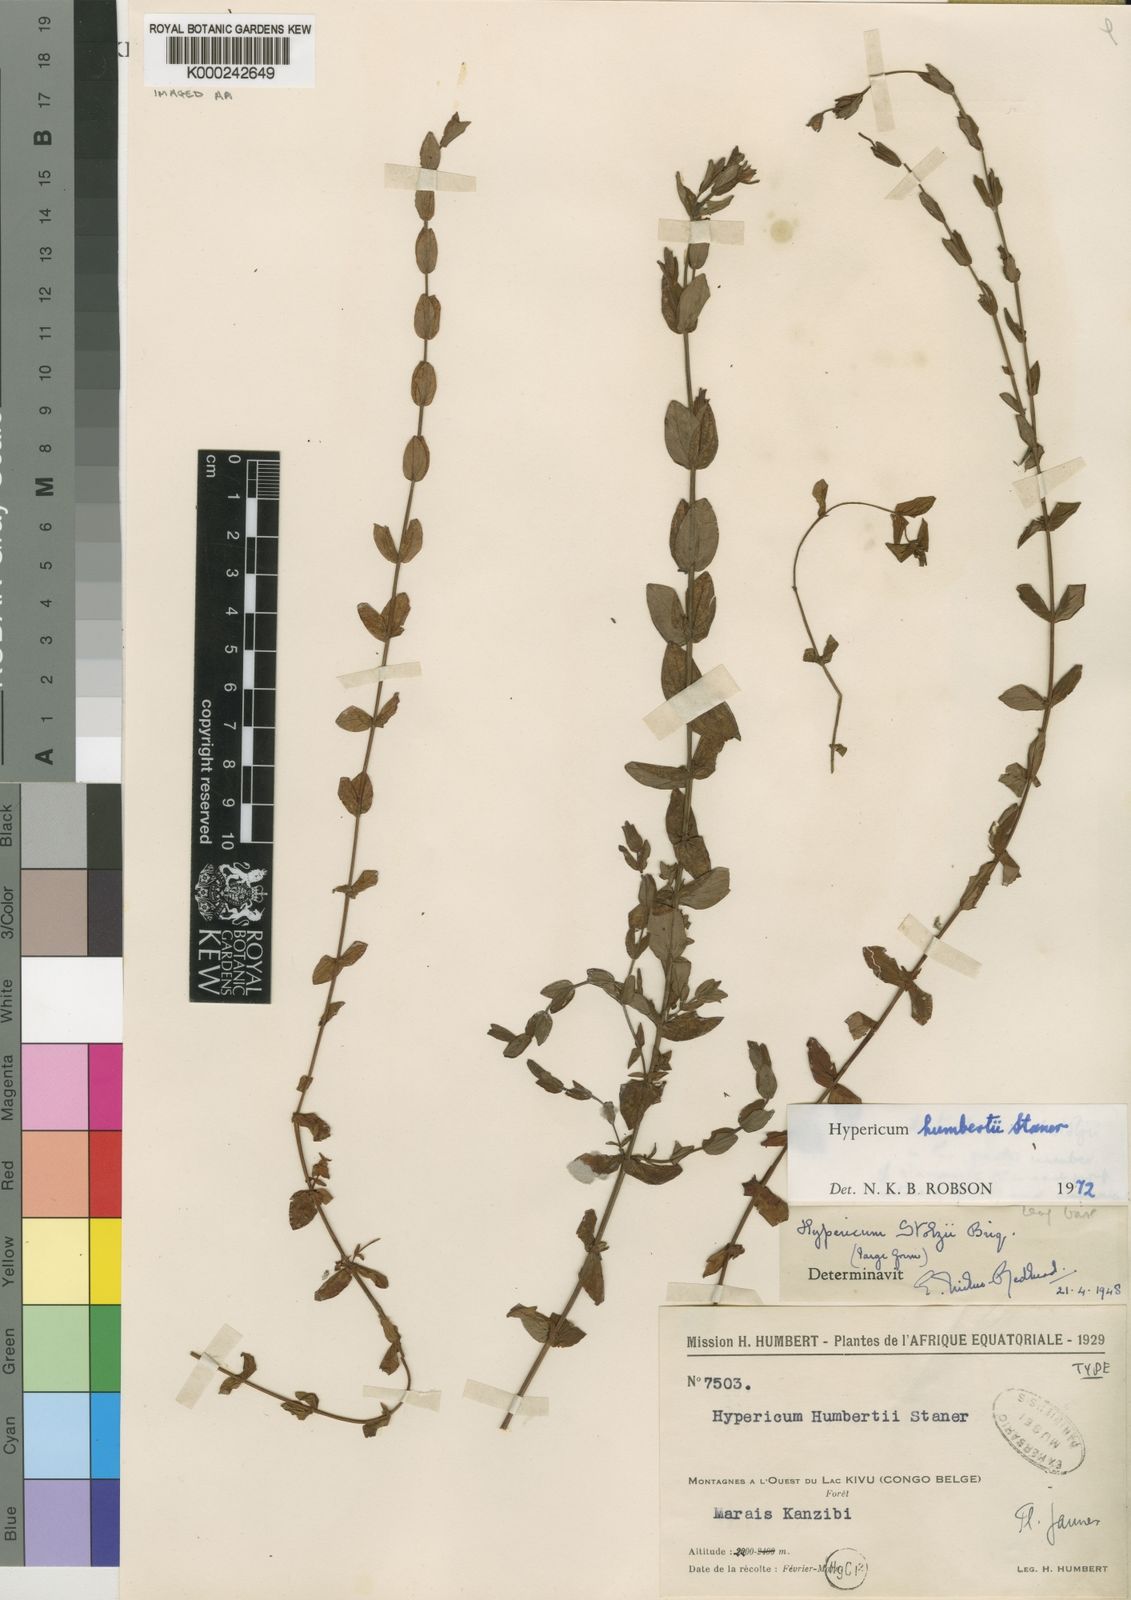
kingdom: Plantae
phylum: Tracheophyta
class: Magnoliopsida
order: Malpighiales
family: Hypericaceae
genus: Hypericum
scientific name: Hypericum humbertii
